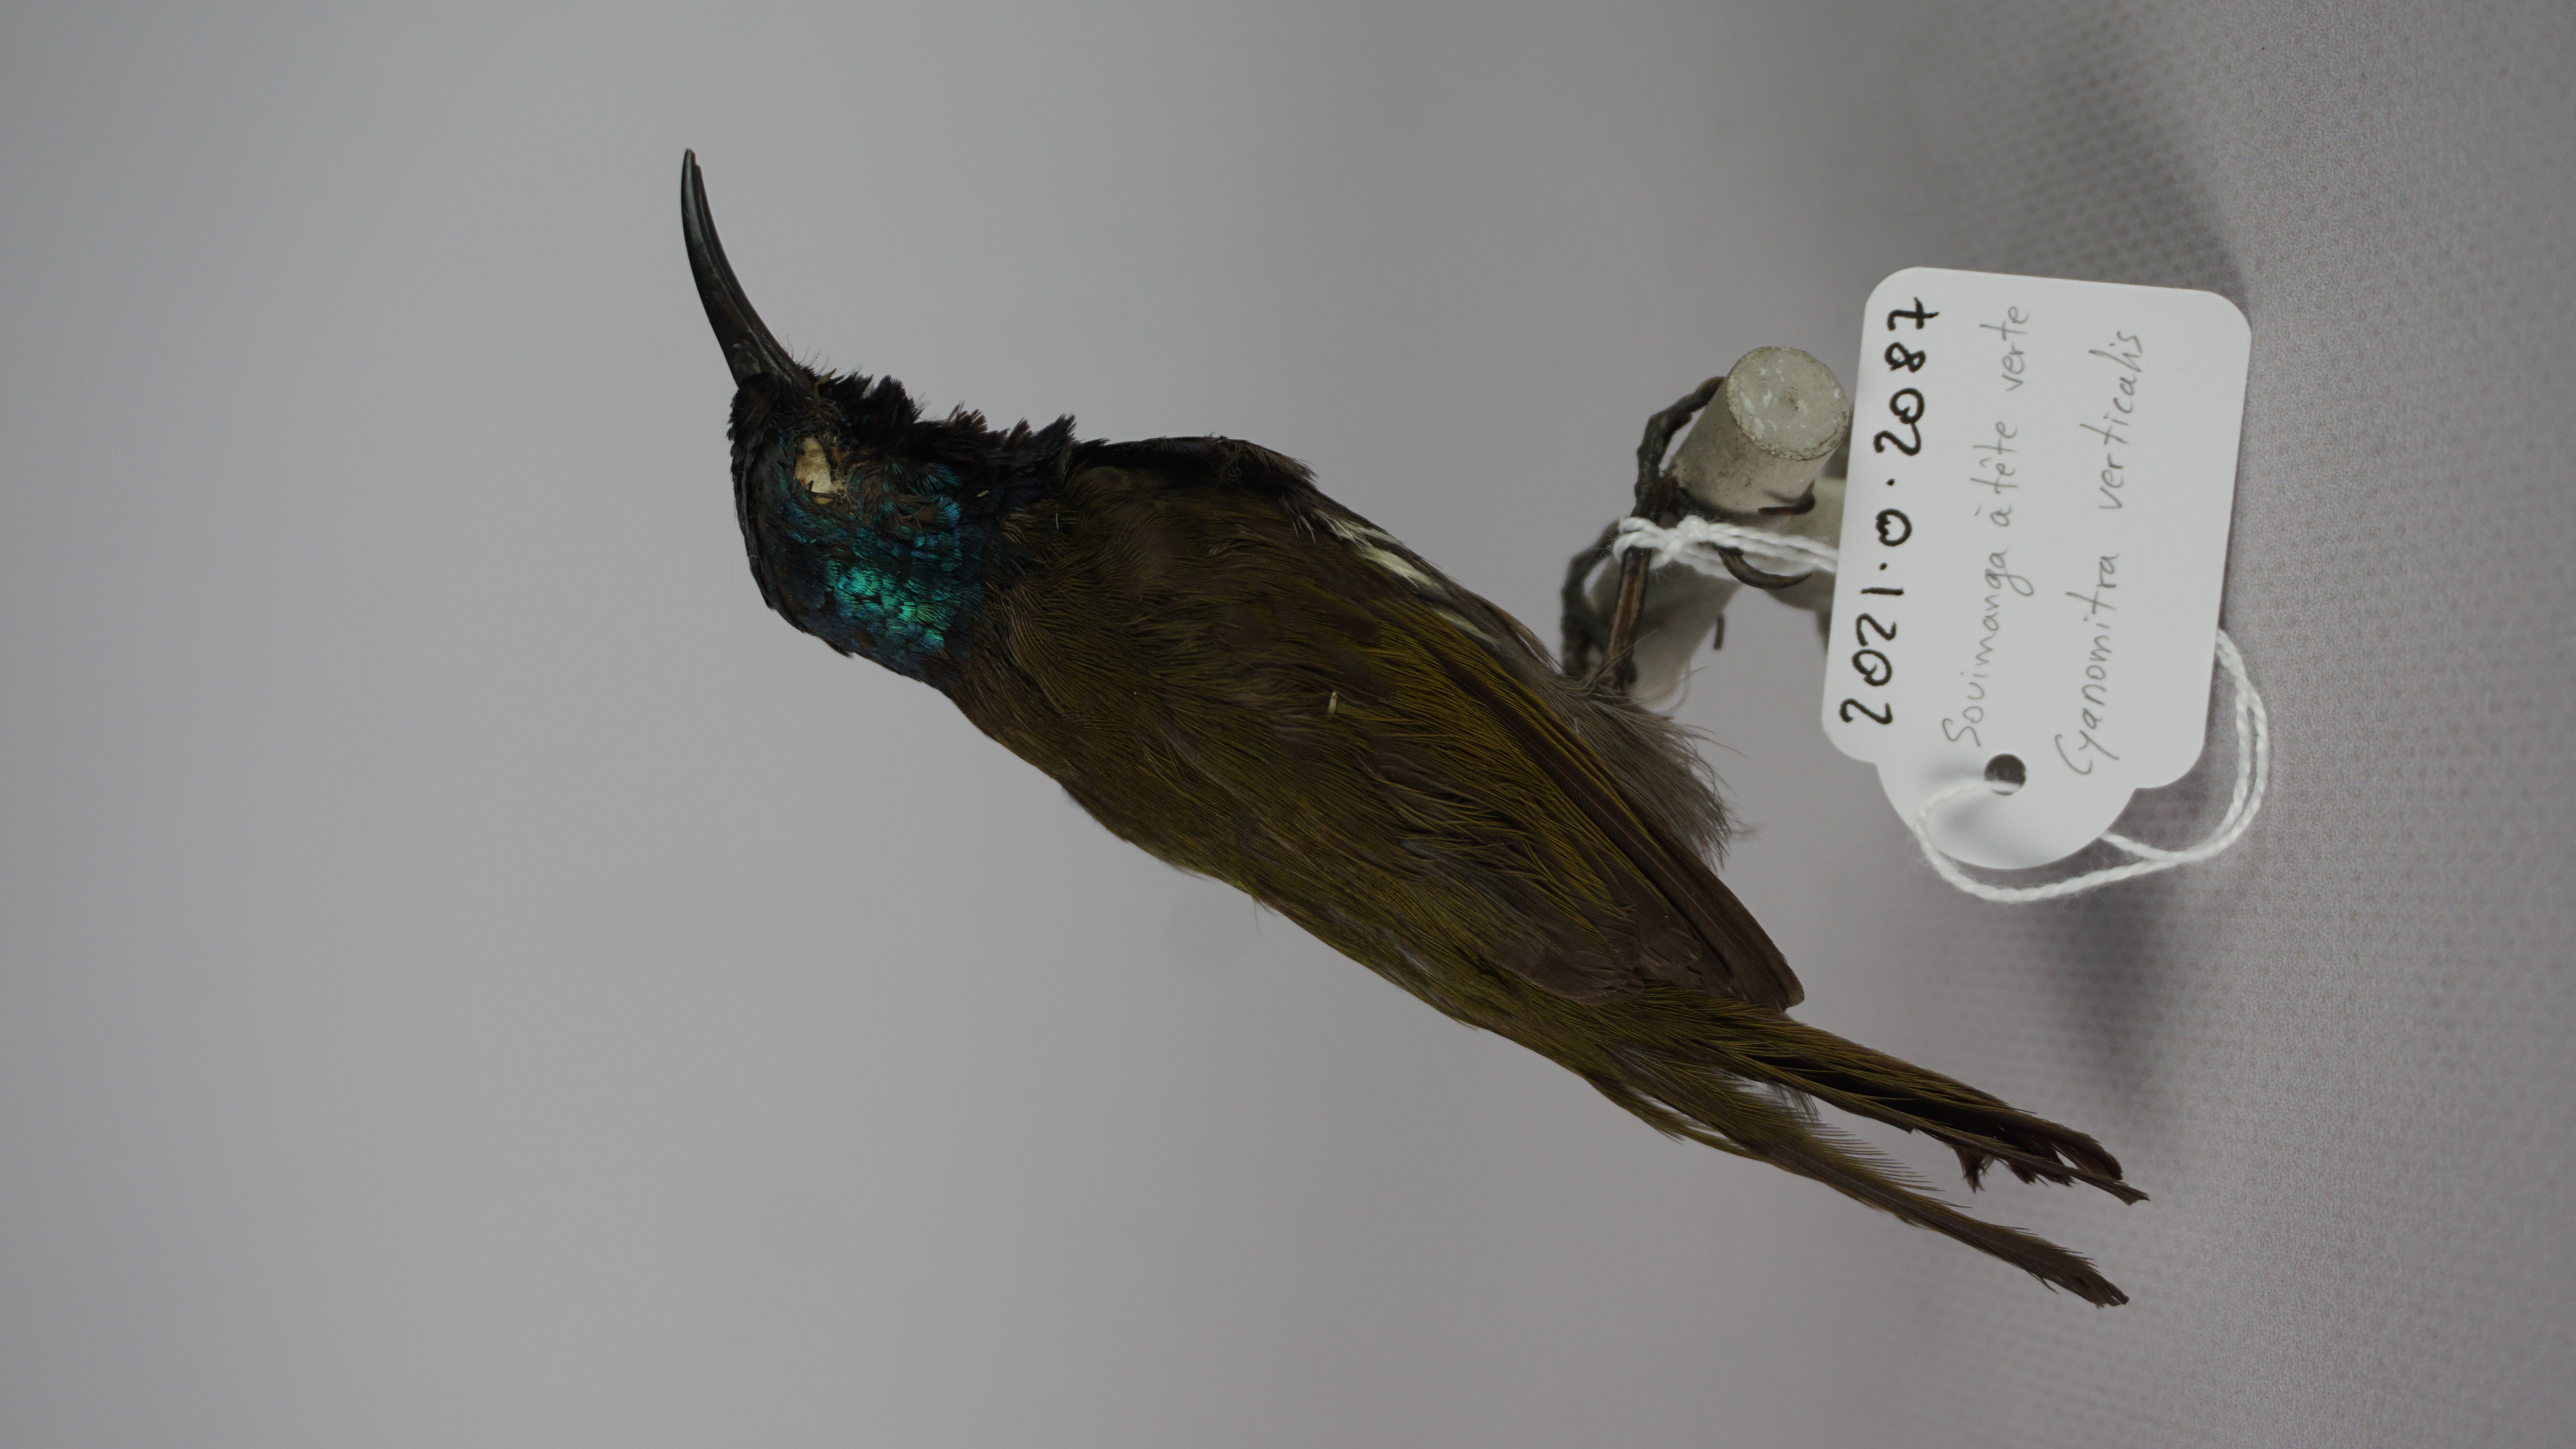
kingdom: Animalia
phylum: Chordata
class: Aves
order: Passeriformes
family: Nectariniidae
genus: Cyanomitra
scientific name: Cyanomitra verticalis
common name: Green-headed sunbird
